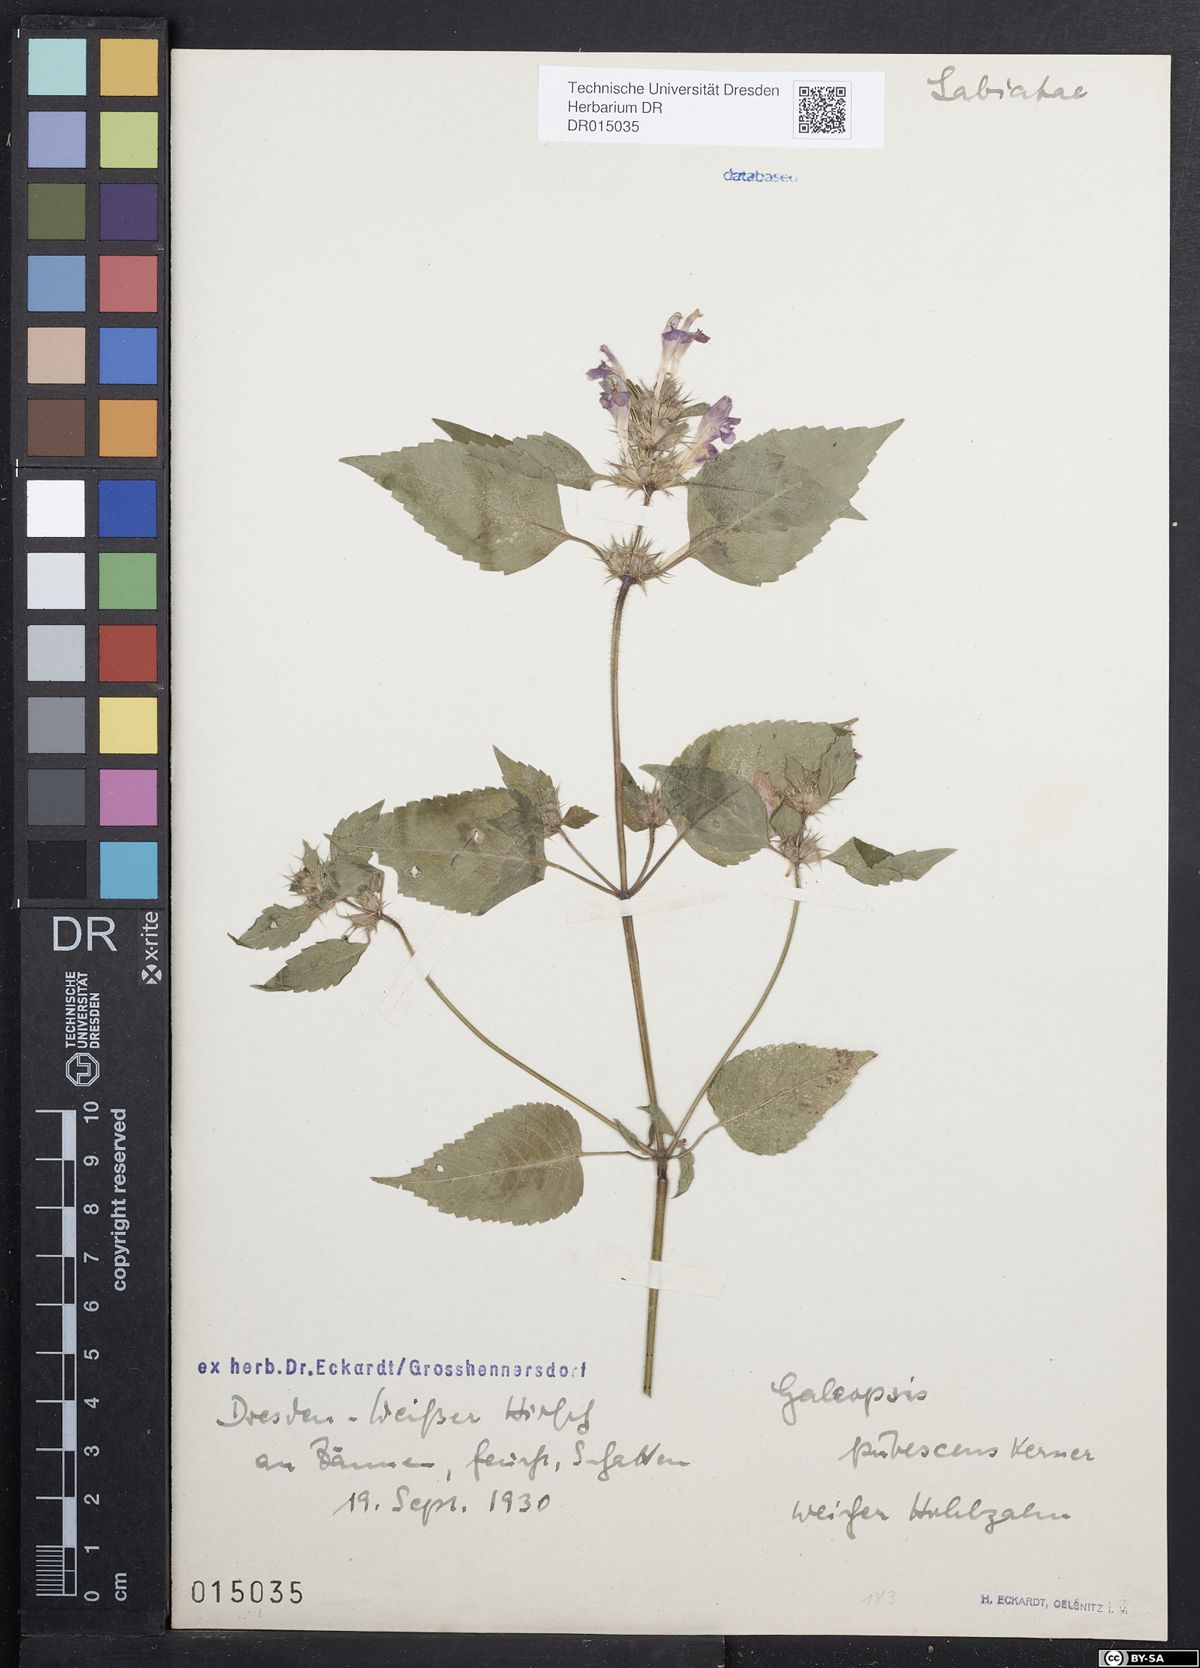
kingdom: Plantae
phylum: Tracheophyta
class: Magnoliopsida
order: Lamiales
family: Lamiaceae
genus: Galeopsis
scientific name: Galeopsis pubescens
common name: Downy hemp-nettle
